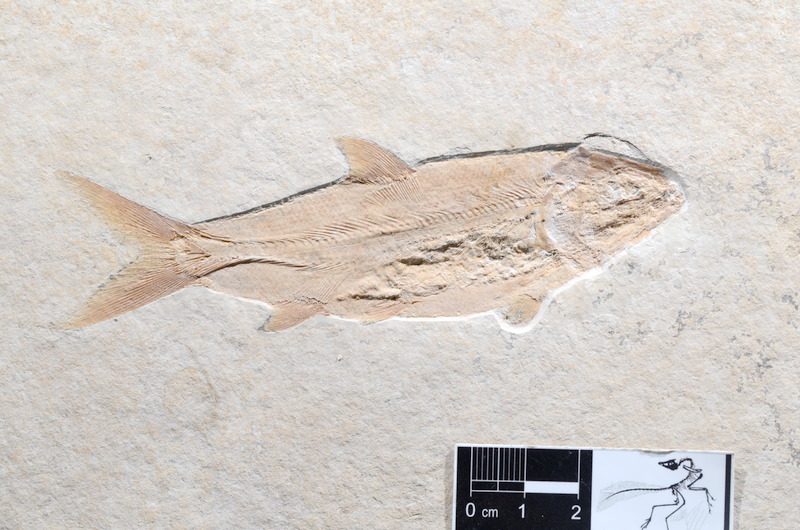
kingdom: Animalia
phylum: Chordata
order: Amiiformes
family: Caturidae
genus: Caturus
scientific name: Caturus furcatus
